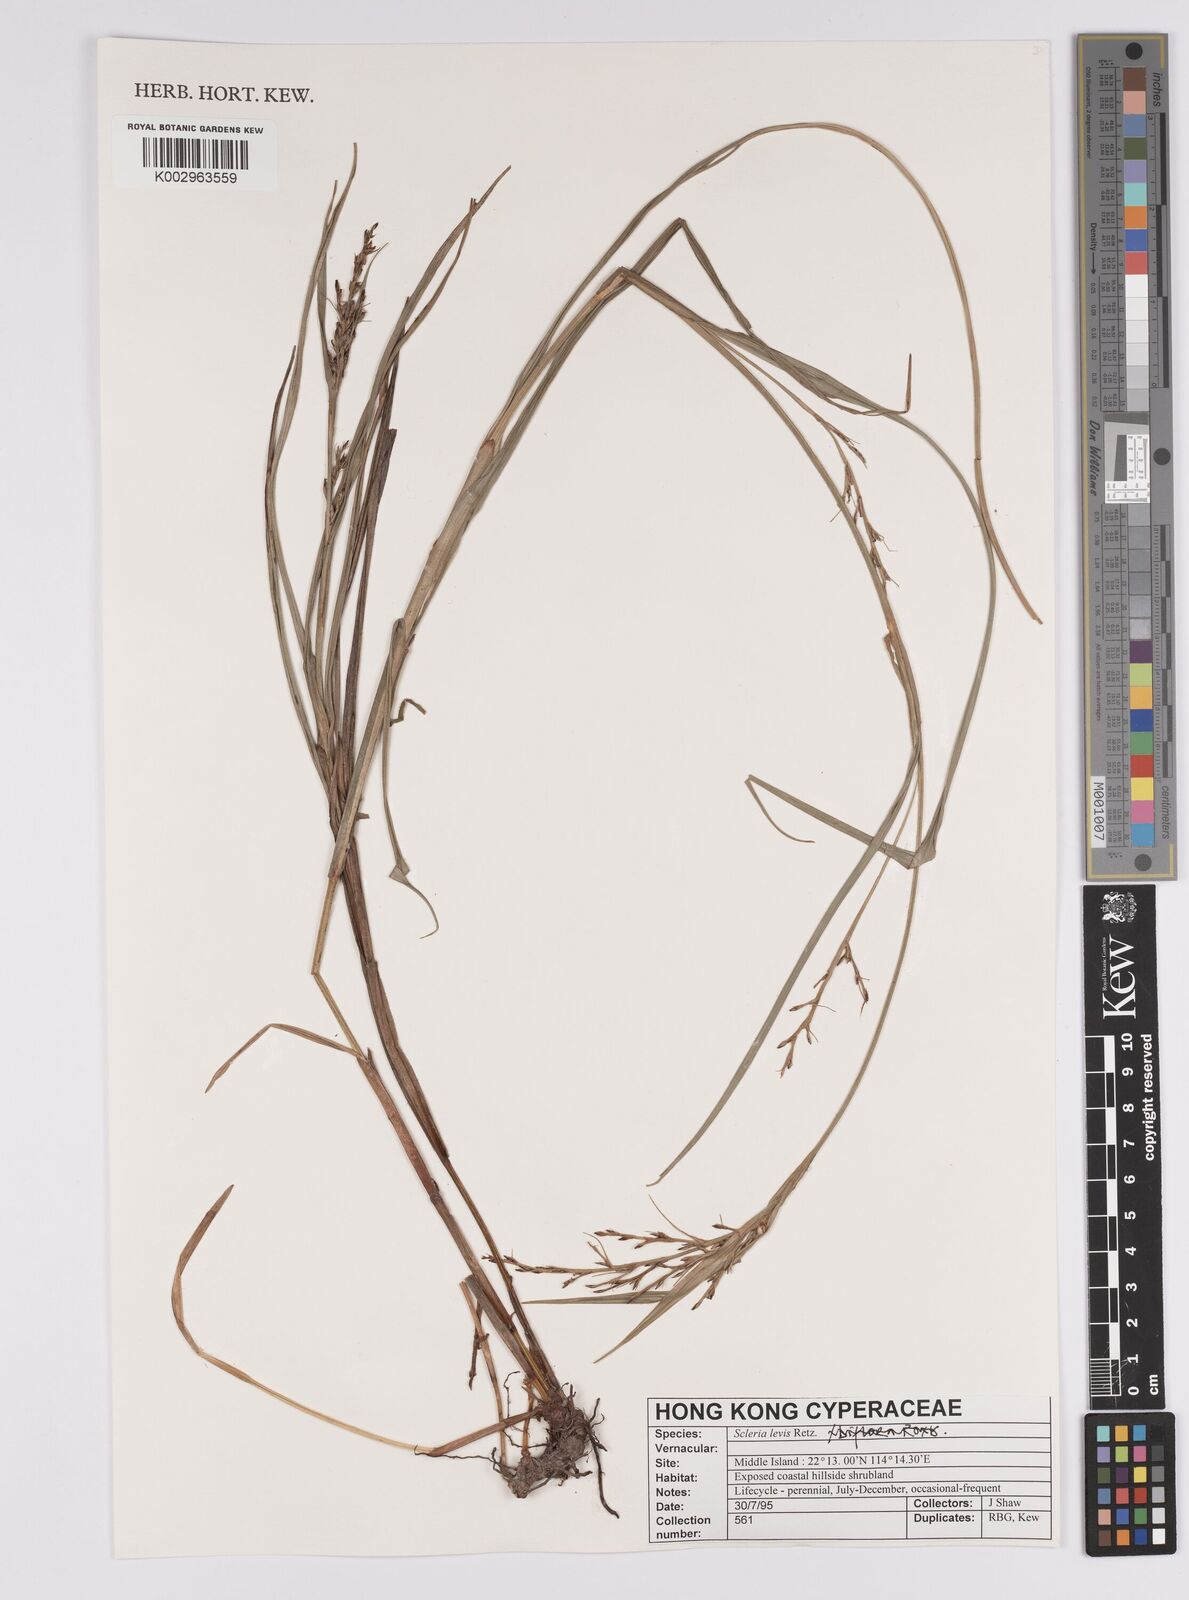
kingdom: Plantae
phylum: Tracheophyta
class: Liliopsida
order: Poales
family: Cyperaceae
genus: Scleria
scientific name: Scleria levis
